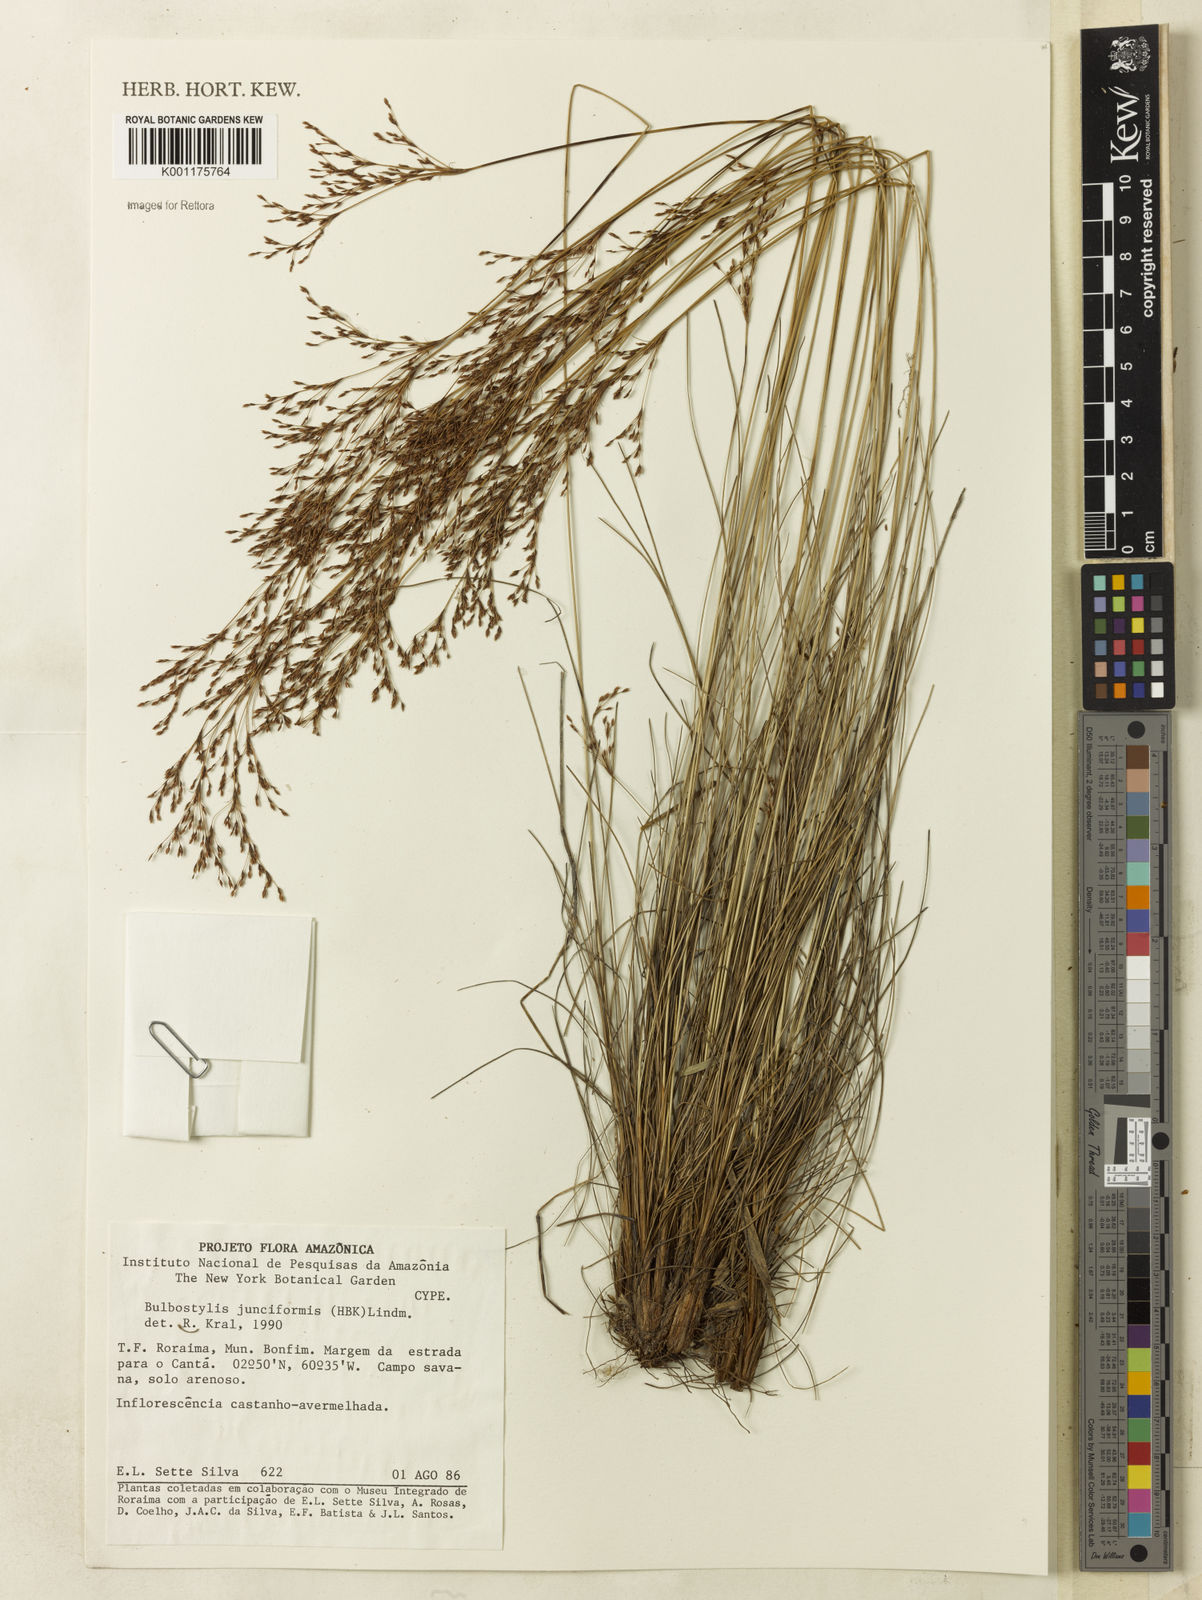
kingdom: Plantae
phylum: Tracheophyta
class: Liliopsida
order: Poales
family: Cyperaceae
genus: Bulbostylis
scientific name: Bulbostylis junciformis
